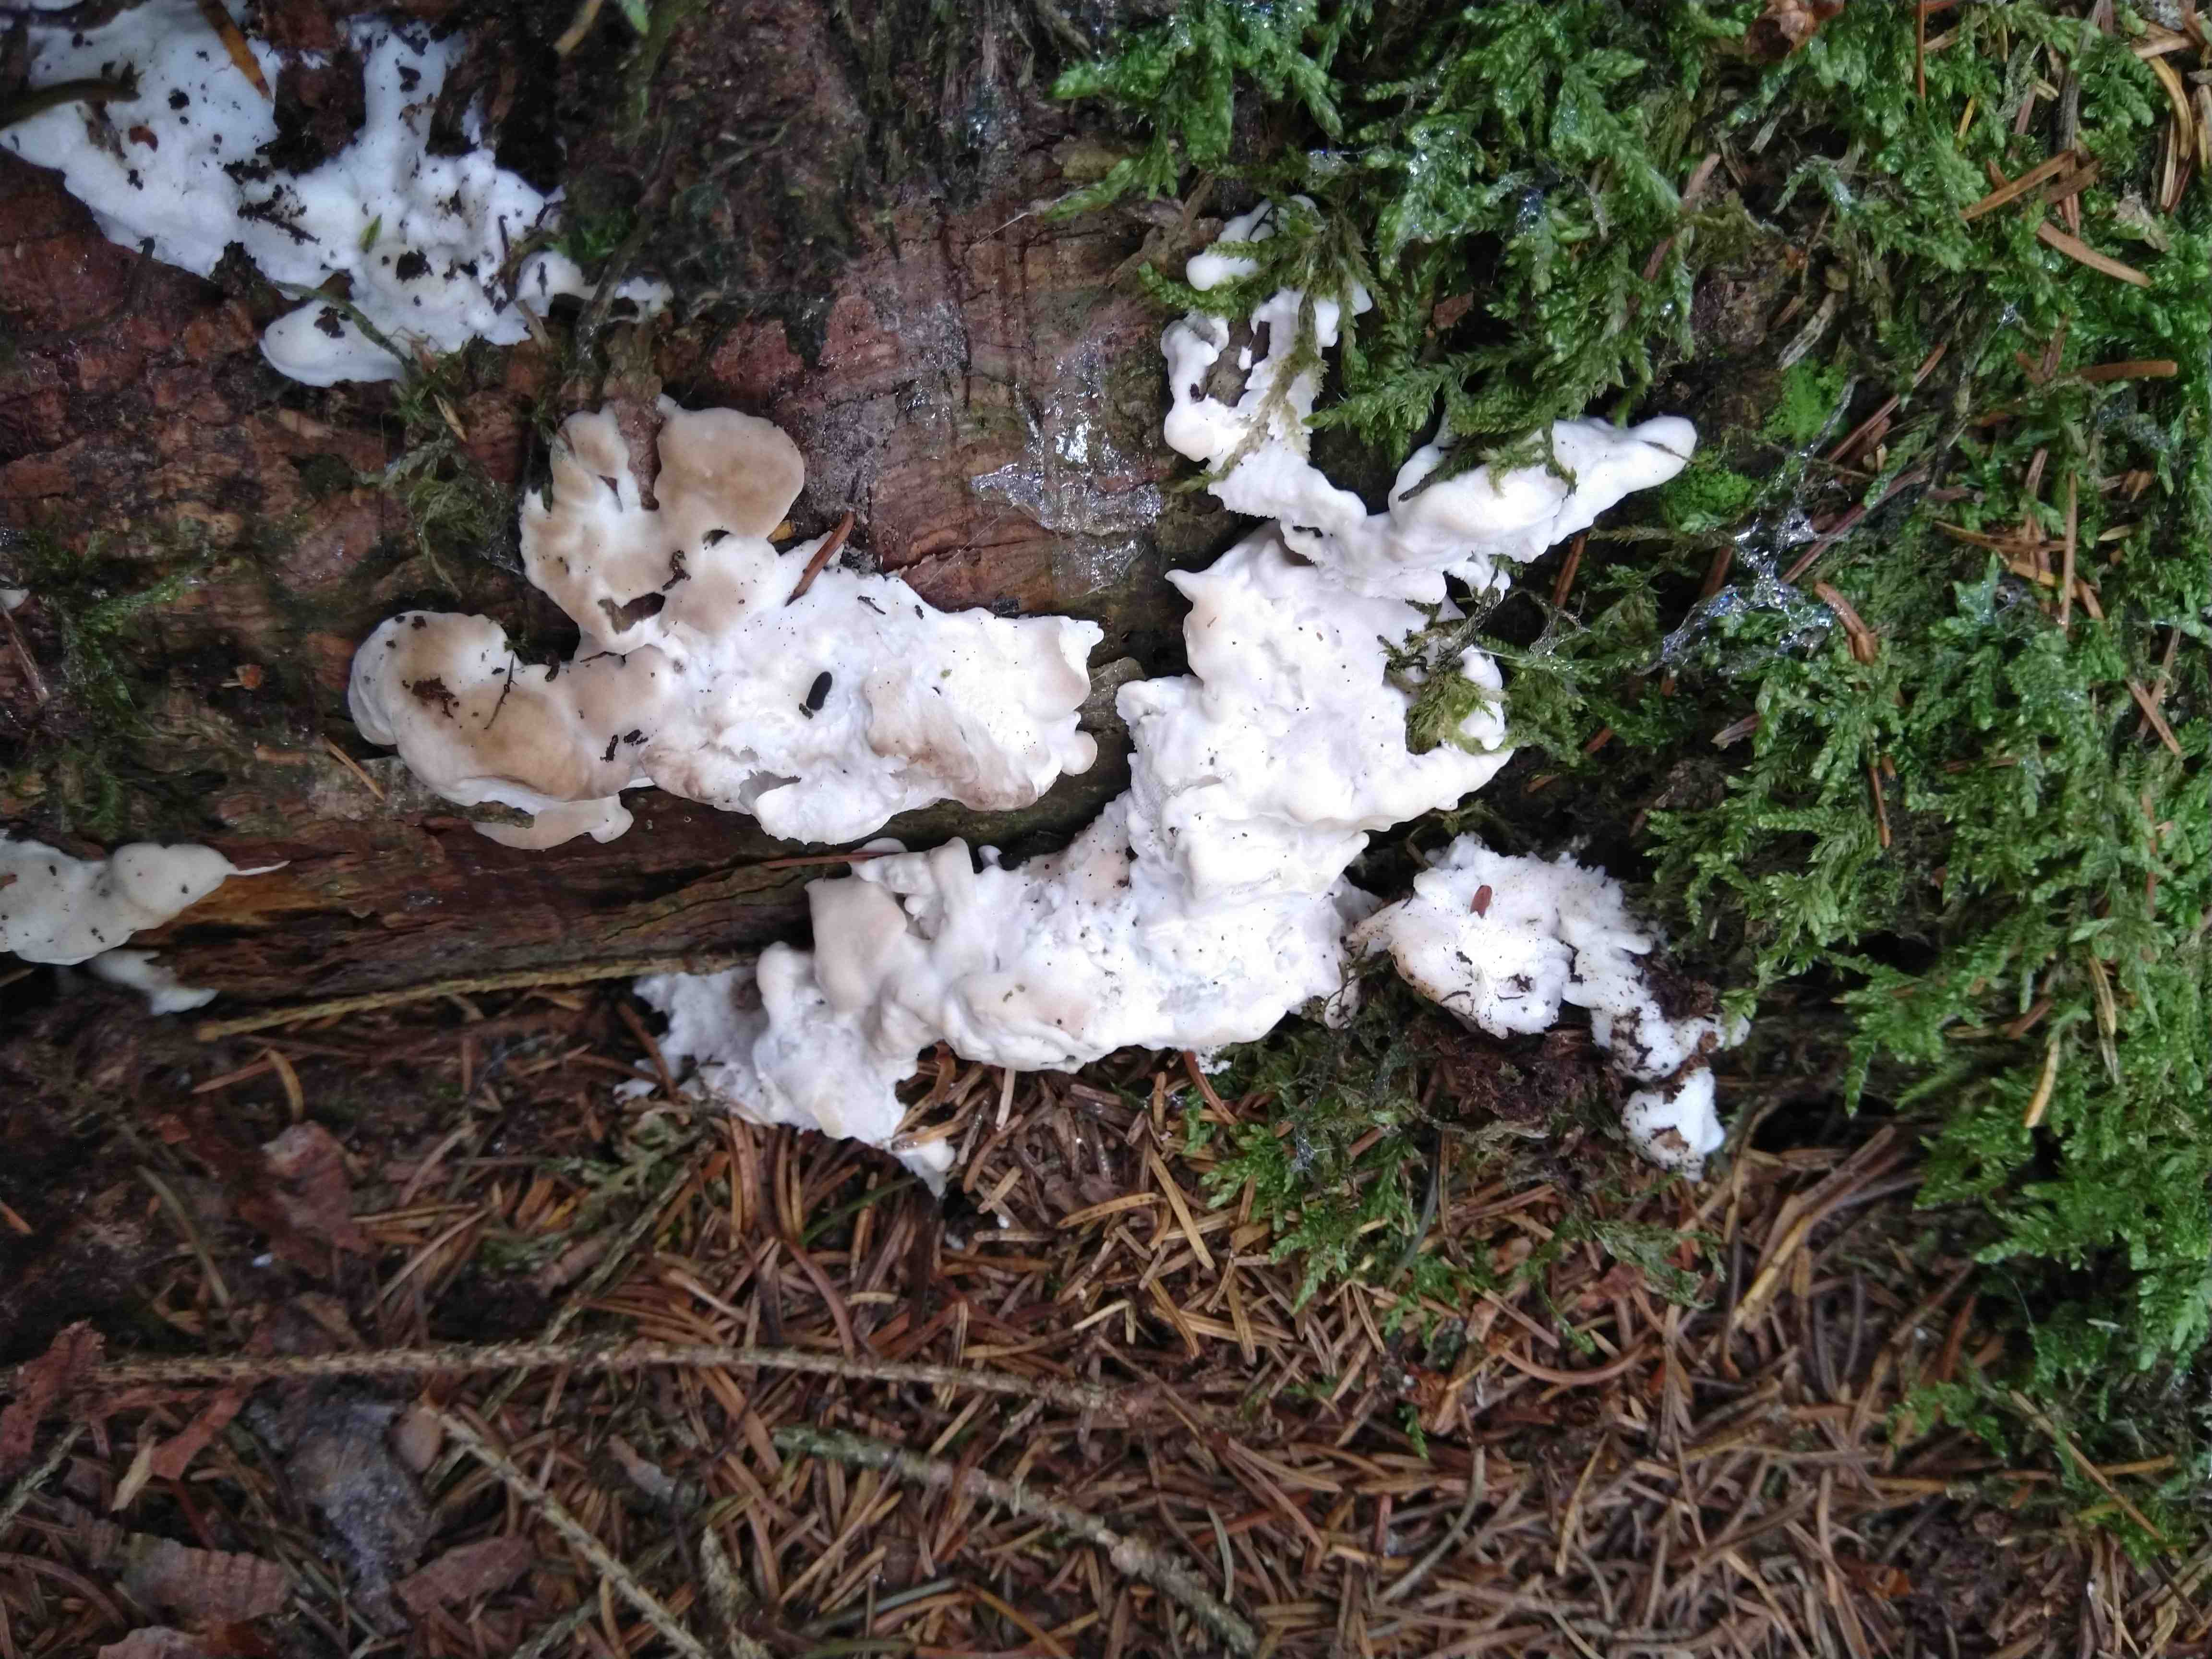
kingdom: Fungi
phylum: Basidiomycota
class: Agaricomycetes
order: Polyporales
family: Incrustoporiaceae
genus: Tyromyces
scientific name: Tyromyces lacteus
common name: mælkehvid kødporesvamp
